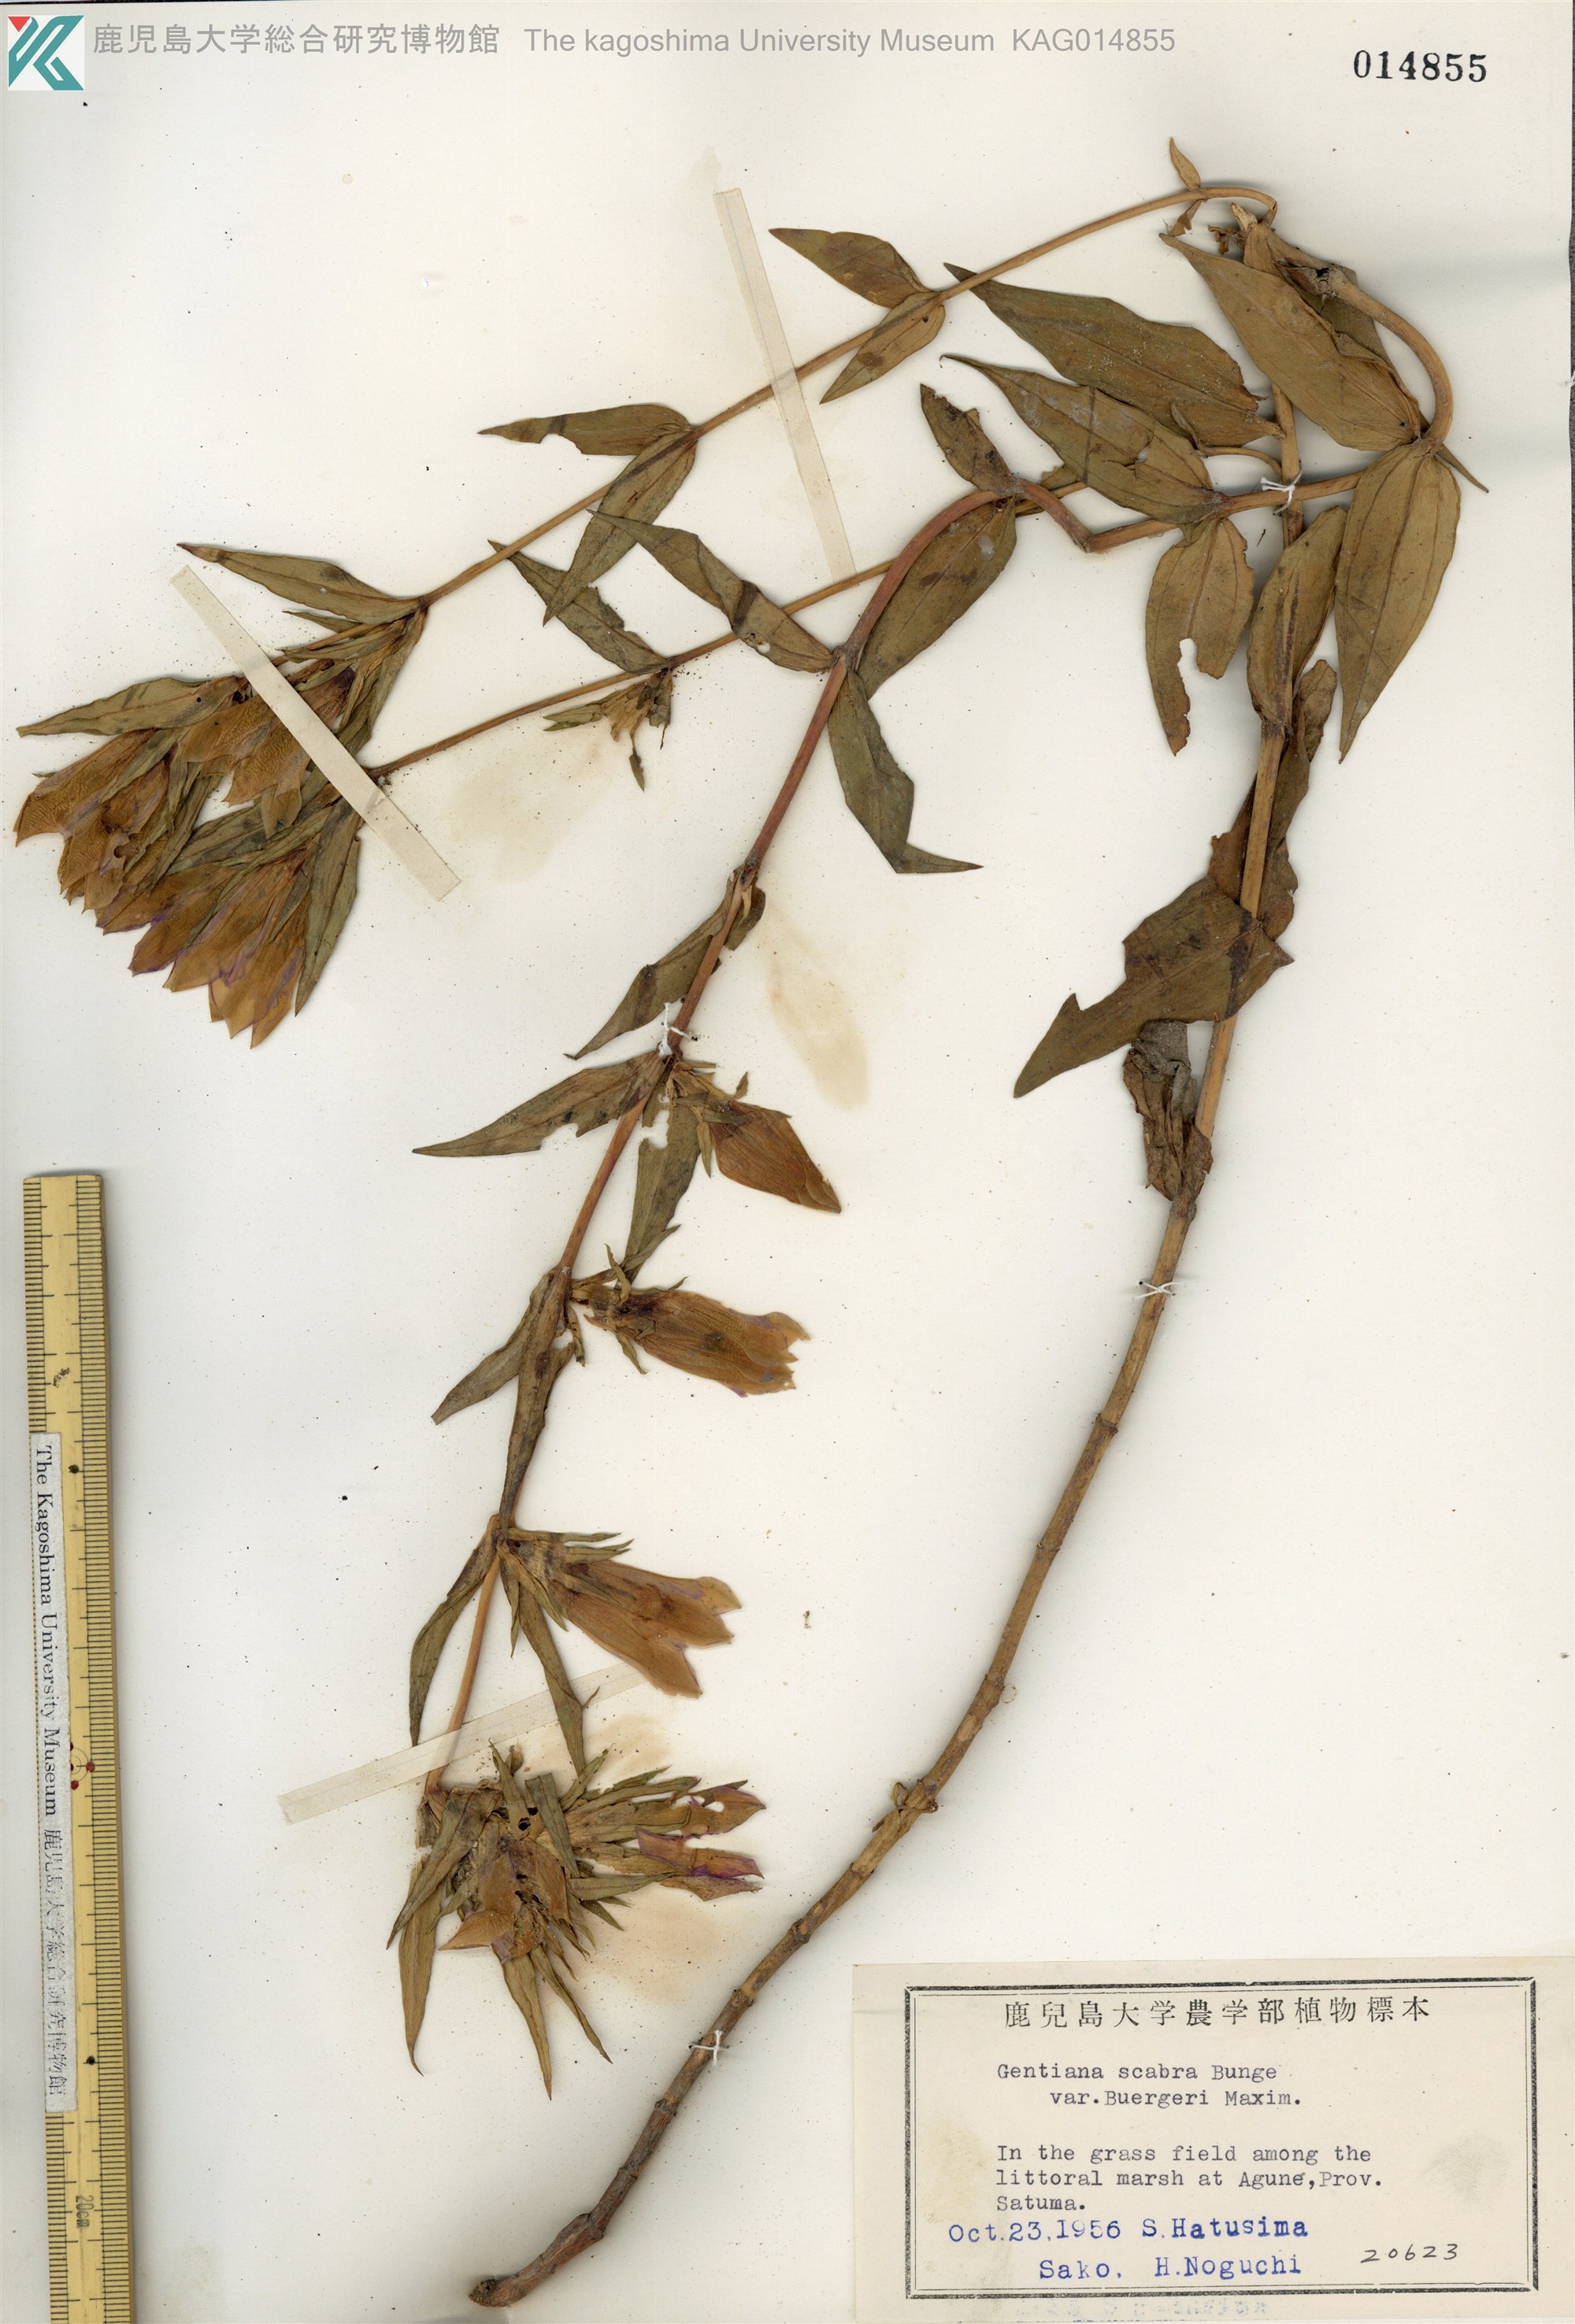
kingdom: Plantae
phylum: Tracheophyta
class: Magnoliopsida
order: Gentianales
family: Gentianaceae
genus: Gentiana
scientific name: Gentiana scabra
